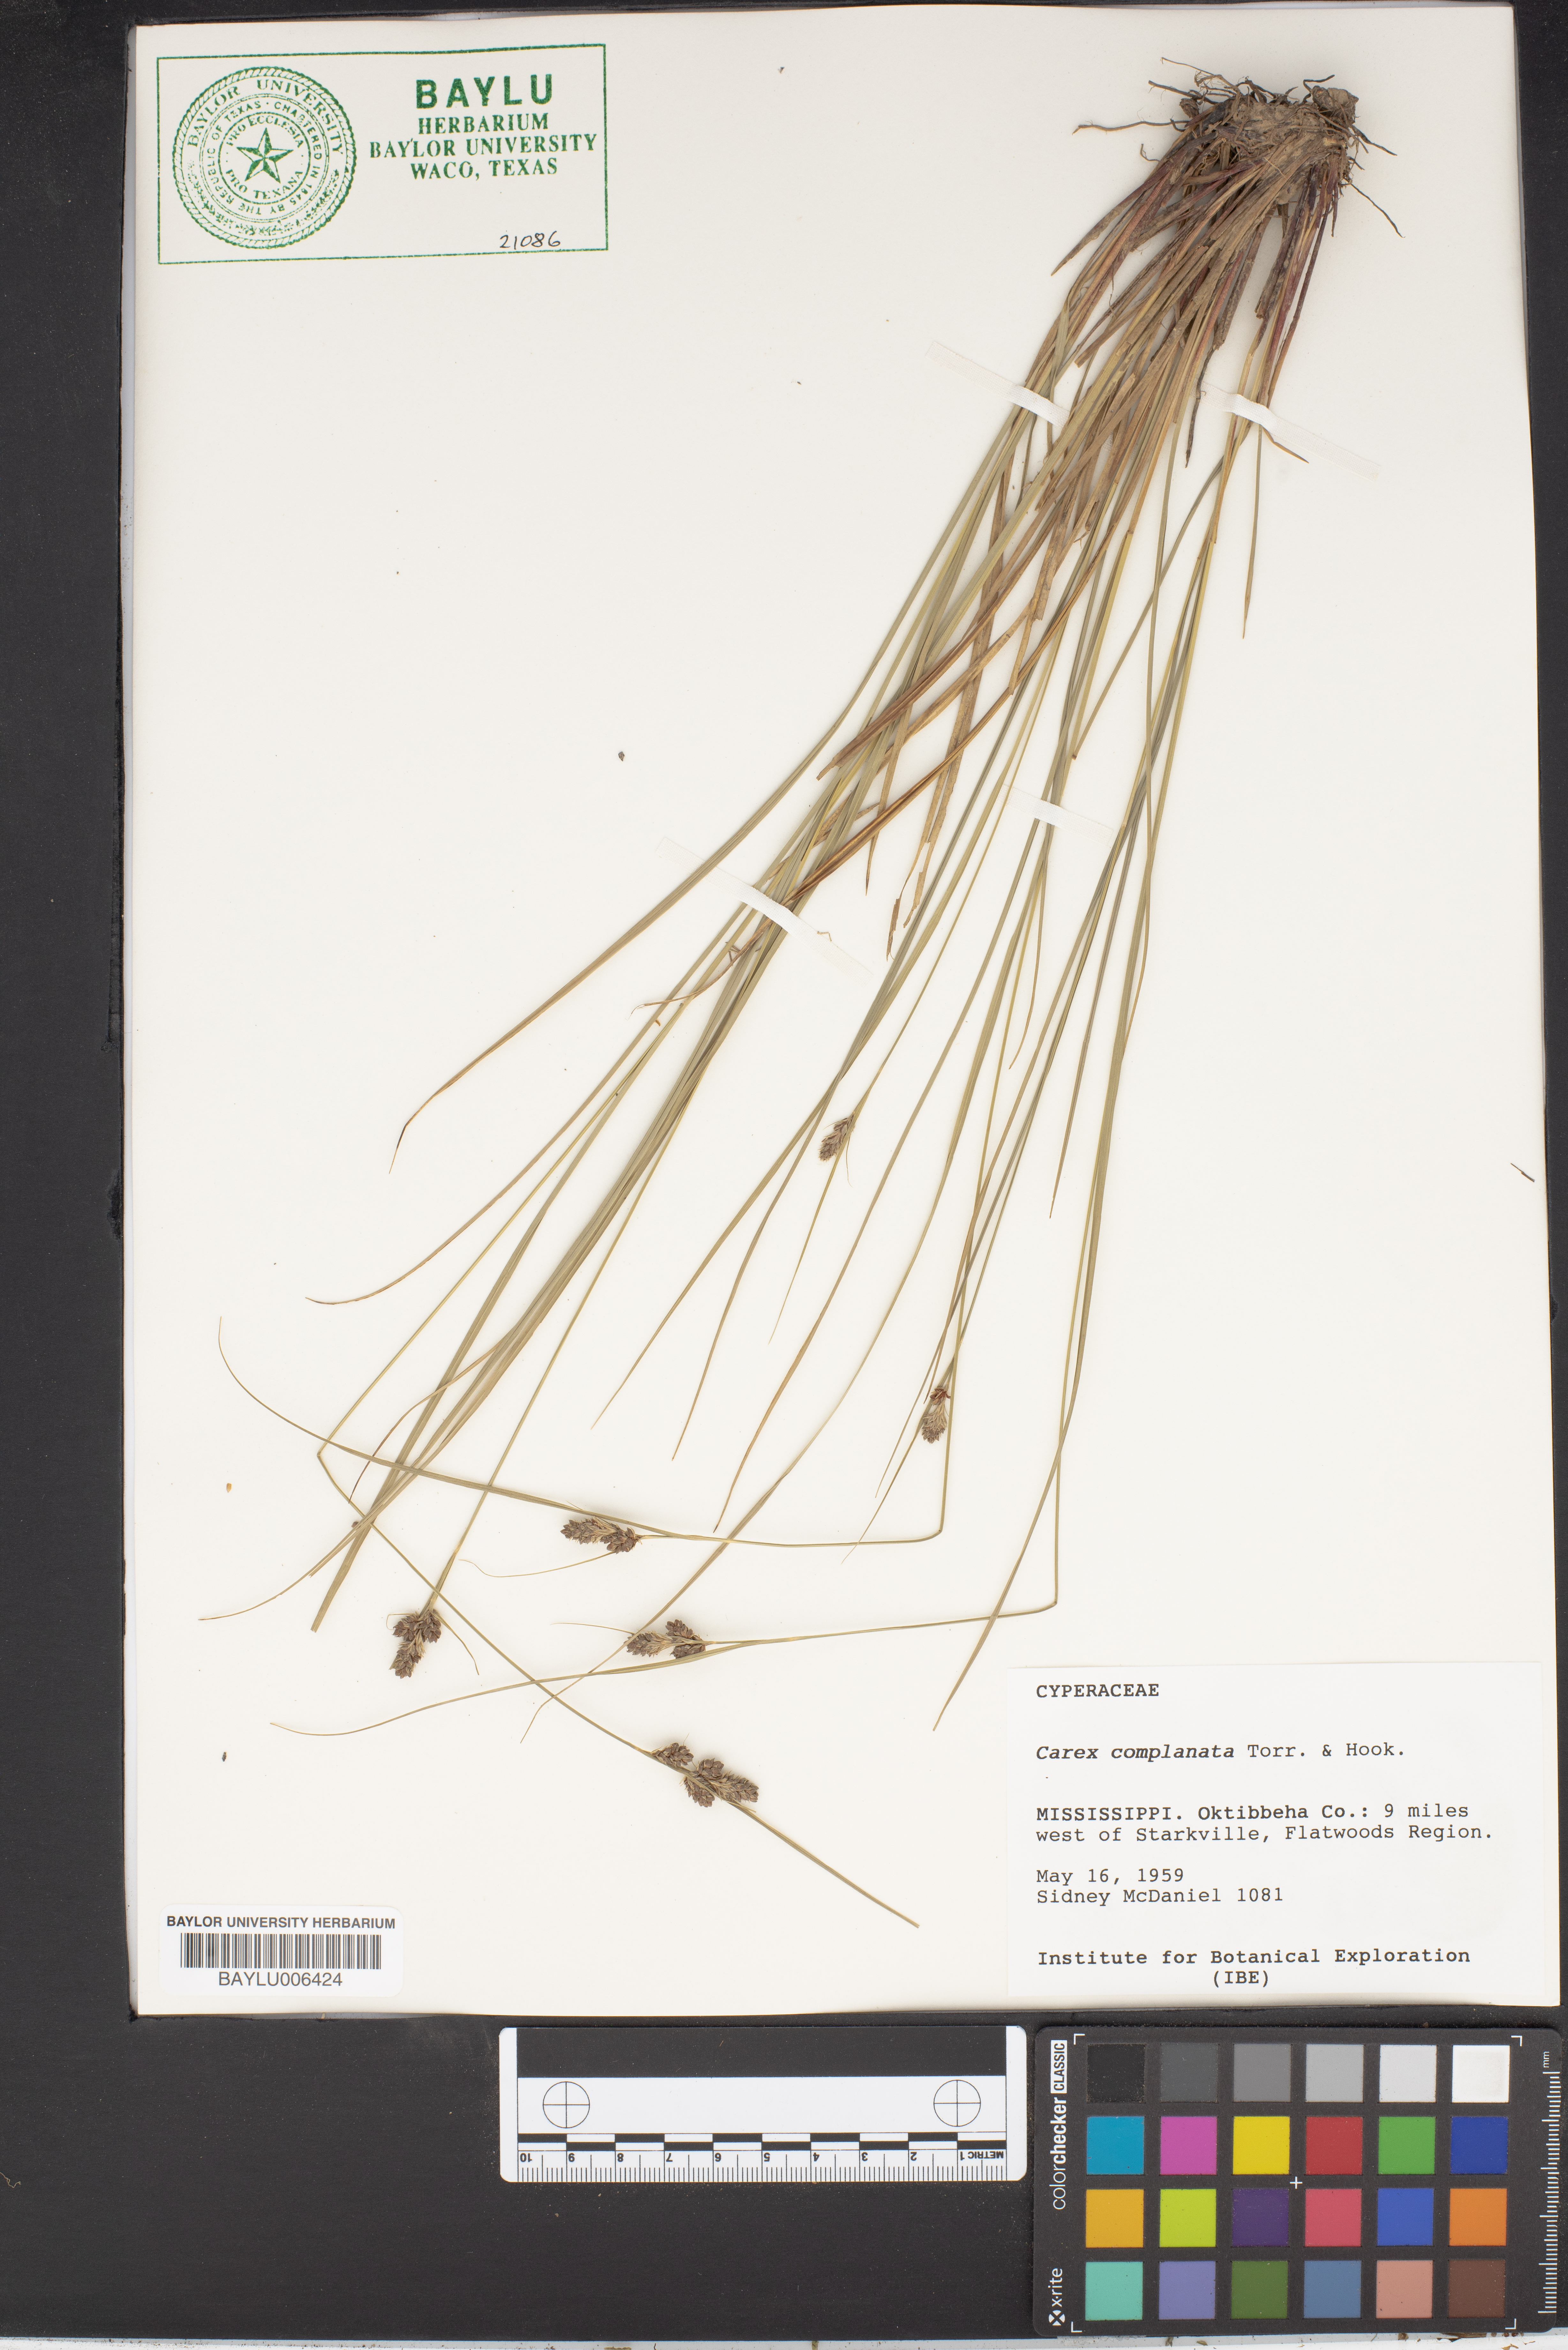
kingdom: Plantae
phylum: Tracheophyta
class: Liliopsida
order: Poales
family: Cyperaceae
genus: Carex
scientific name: Carex complanata
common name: Hirsute sedge
